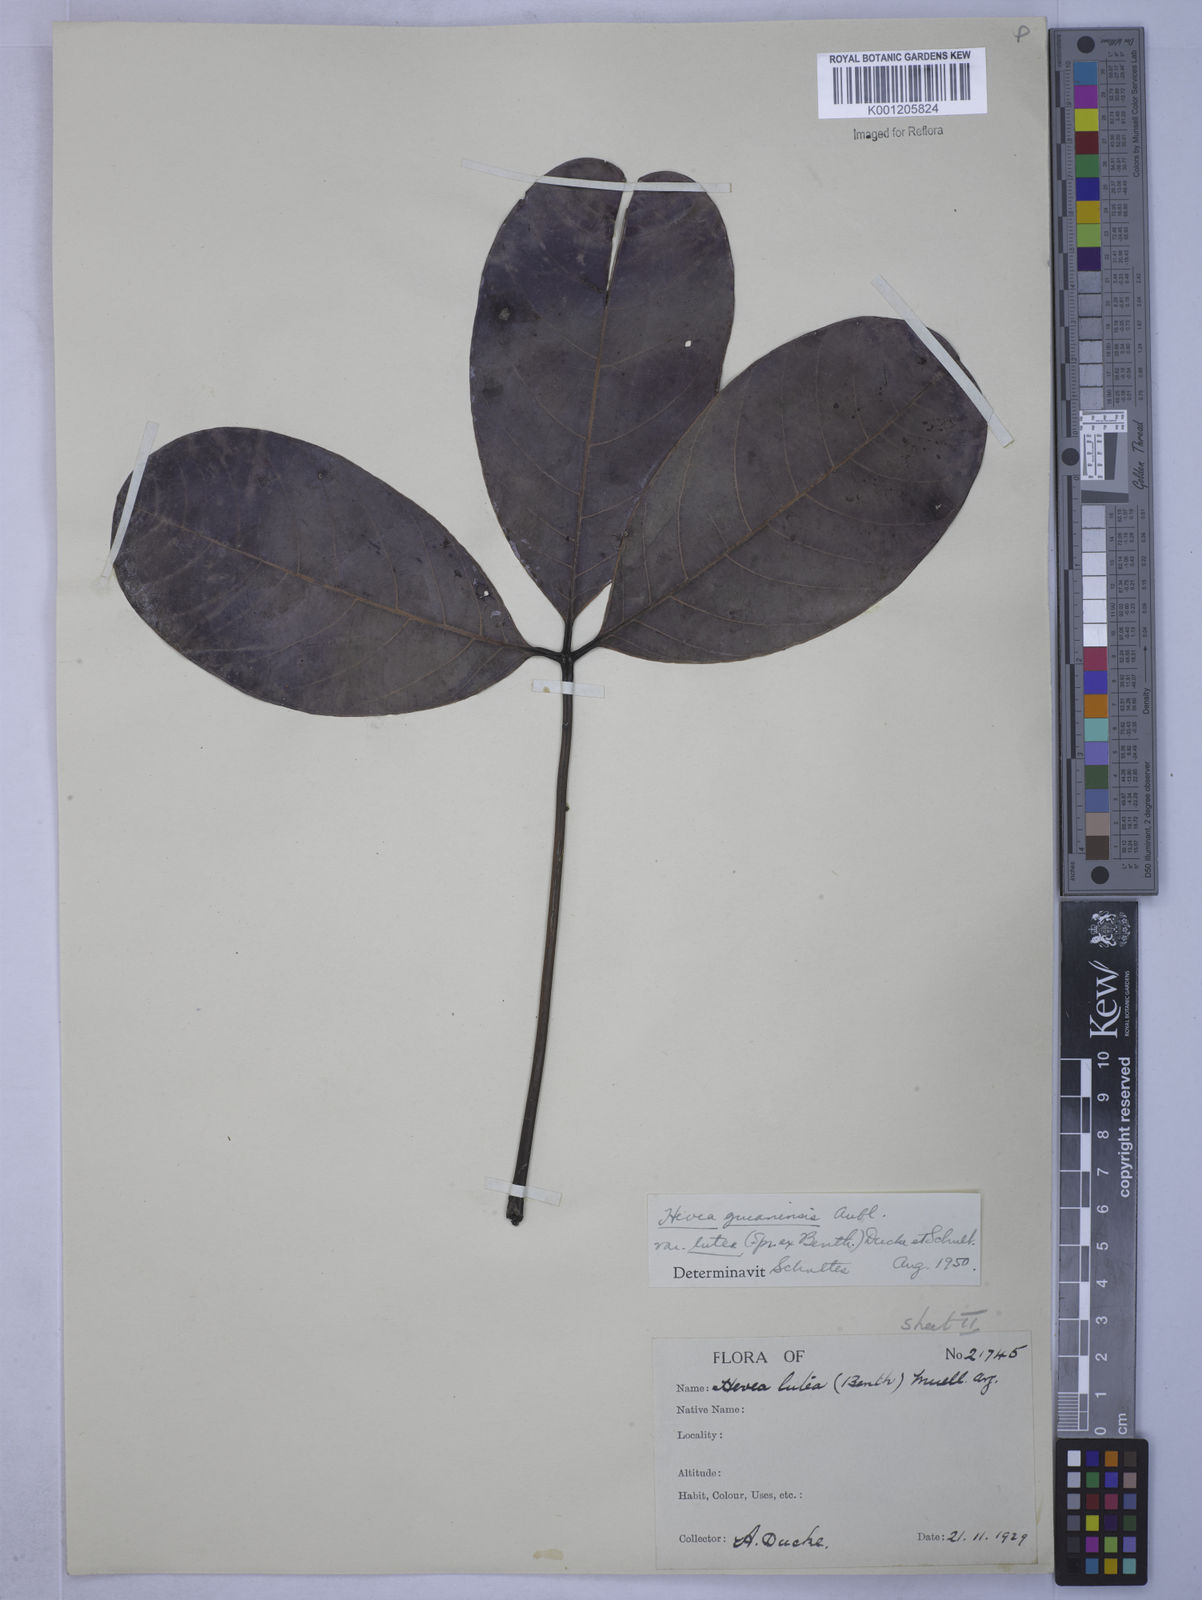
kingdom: Plantae
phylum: Tracheophyta
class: Magnoliopsida
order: Malpighiales
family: Euphorbiaceae
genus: Hevea
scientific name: Hevea guianensis
